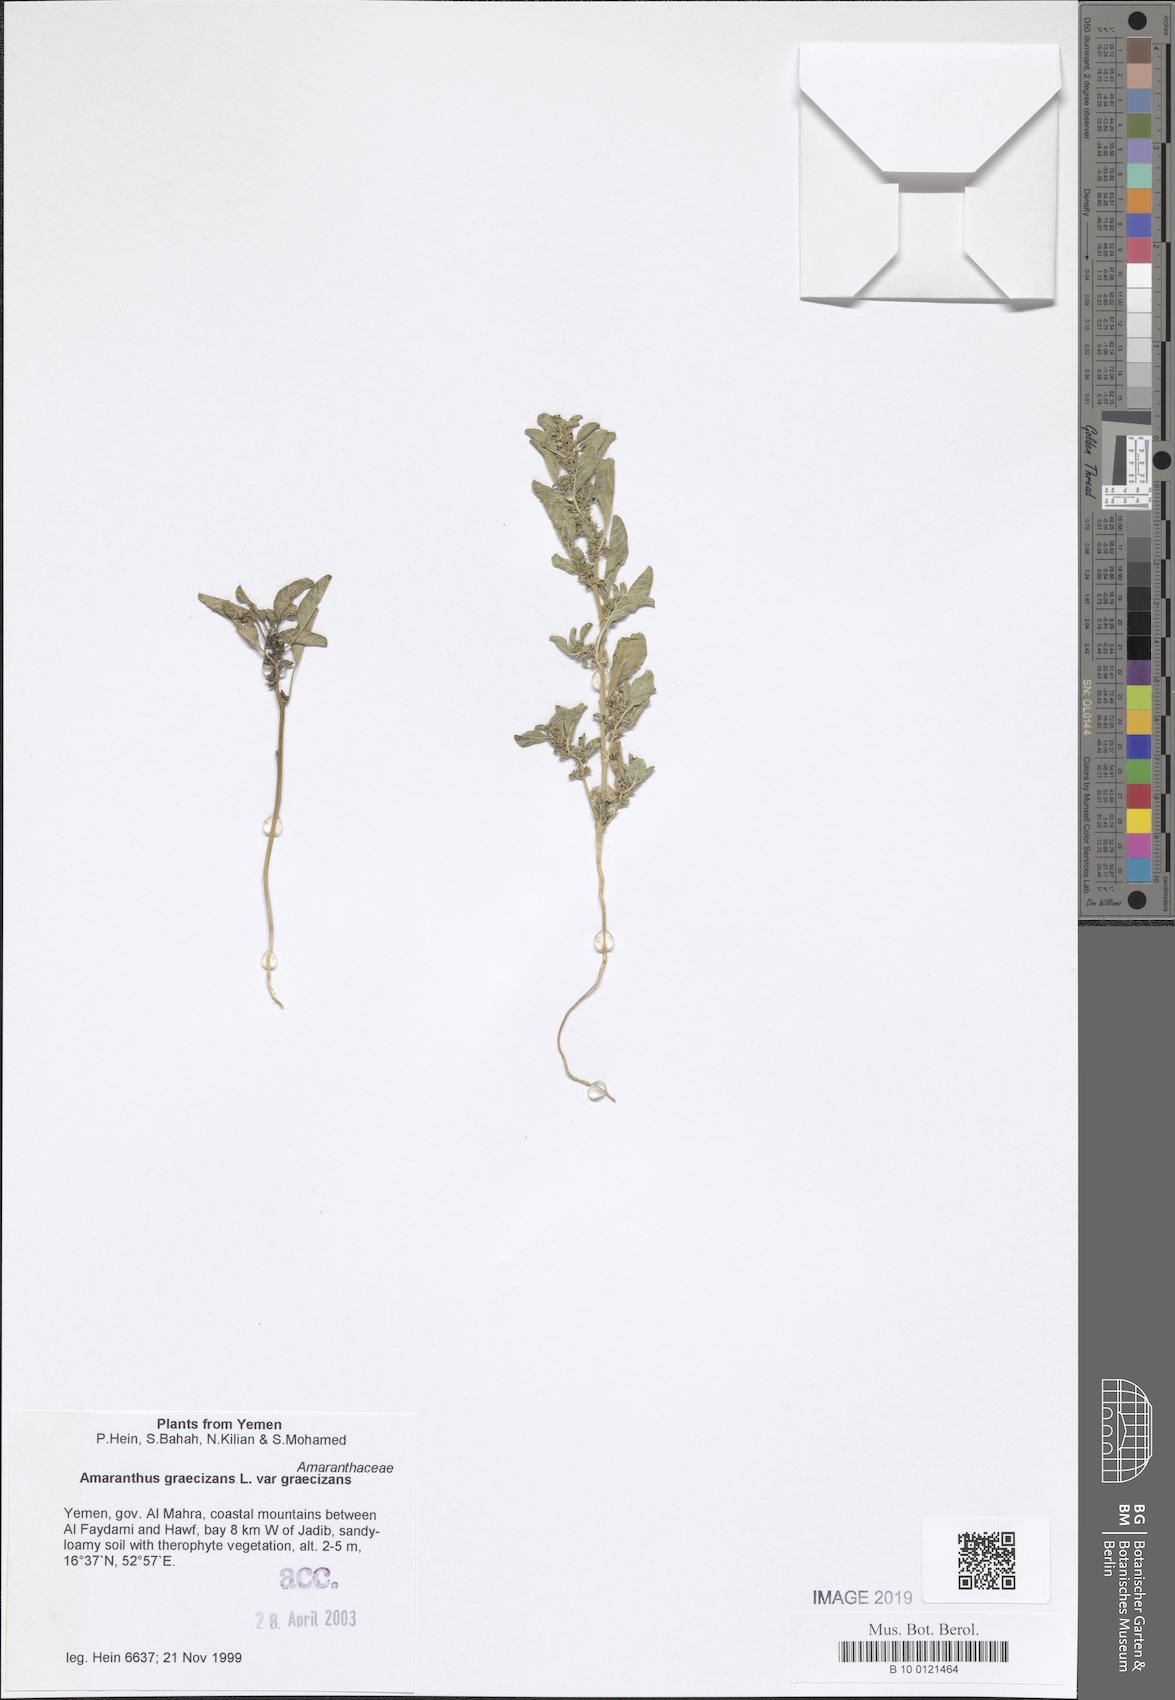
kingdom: Plantae
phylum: Tracheophyta
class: Magnoliopsida
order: Caryophyllales
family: Amaranthaceae
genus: Amaranthus
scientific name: Amaranthus graecizans
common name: Mediterranean amaranth
